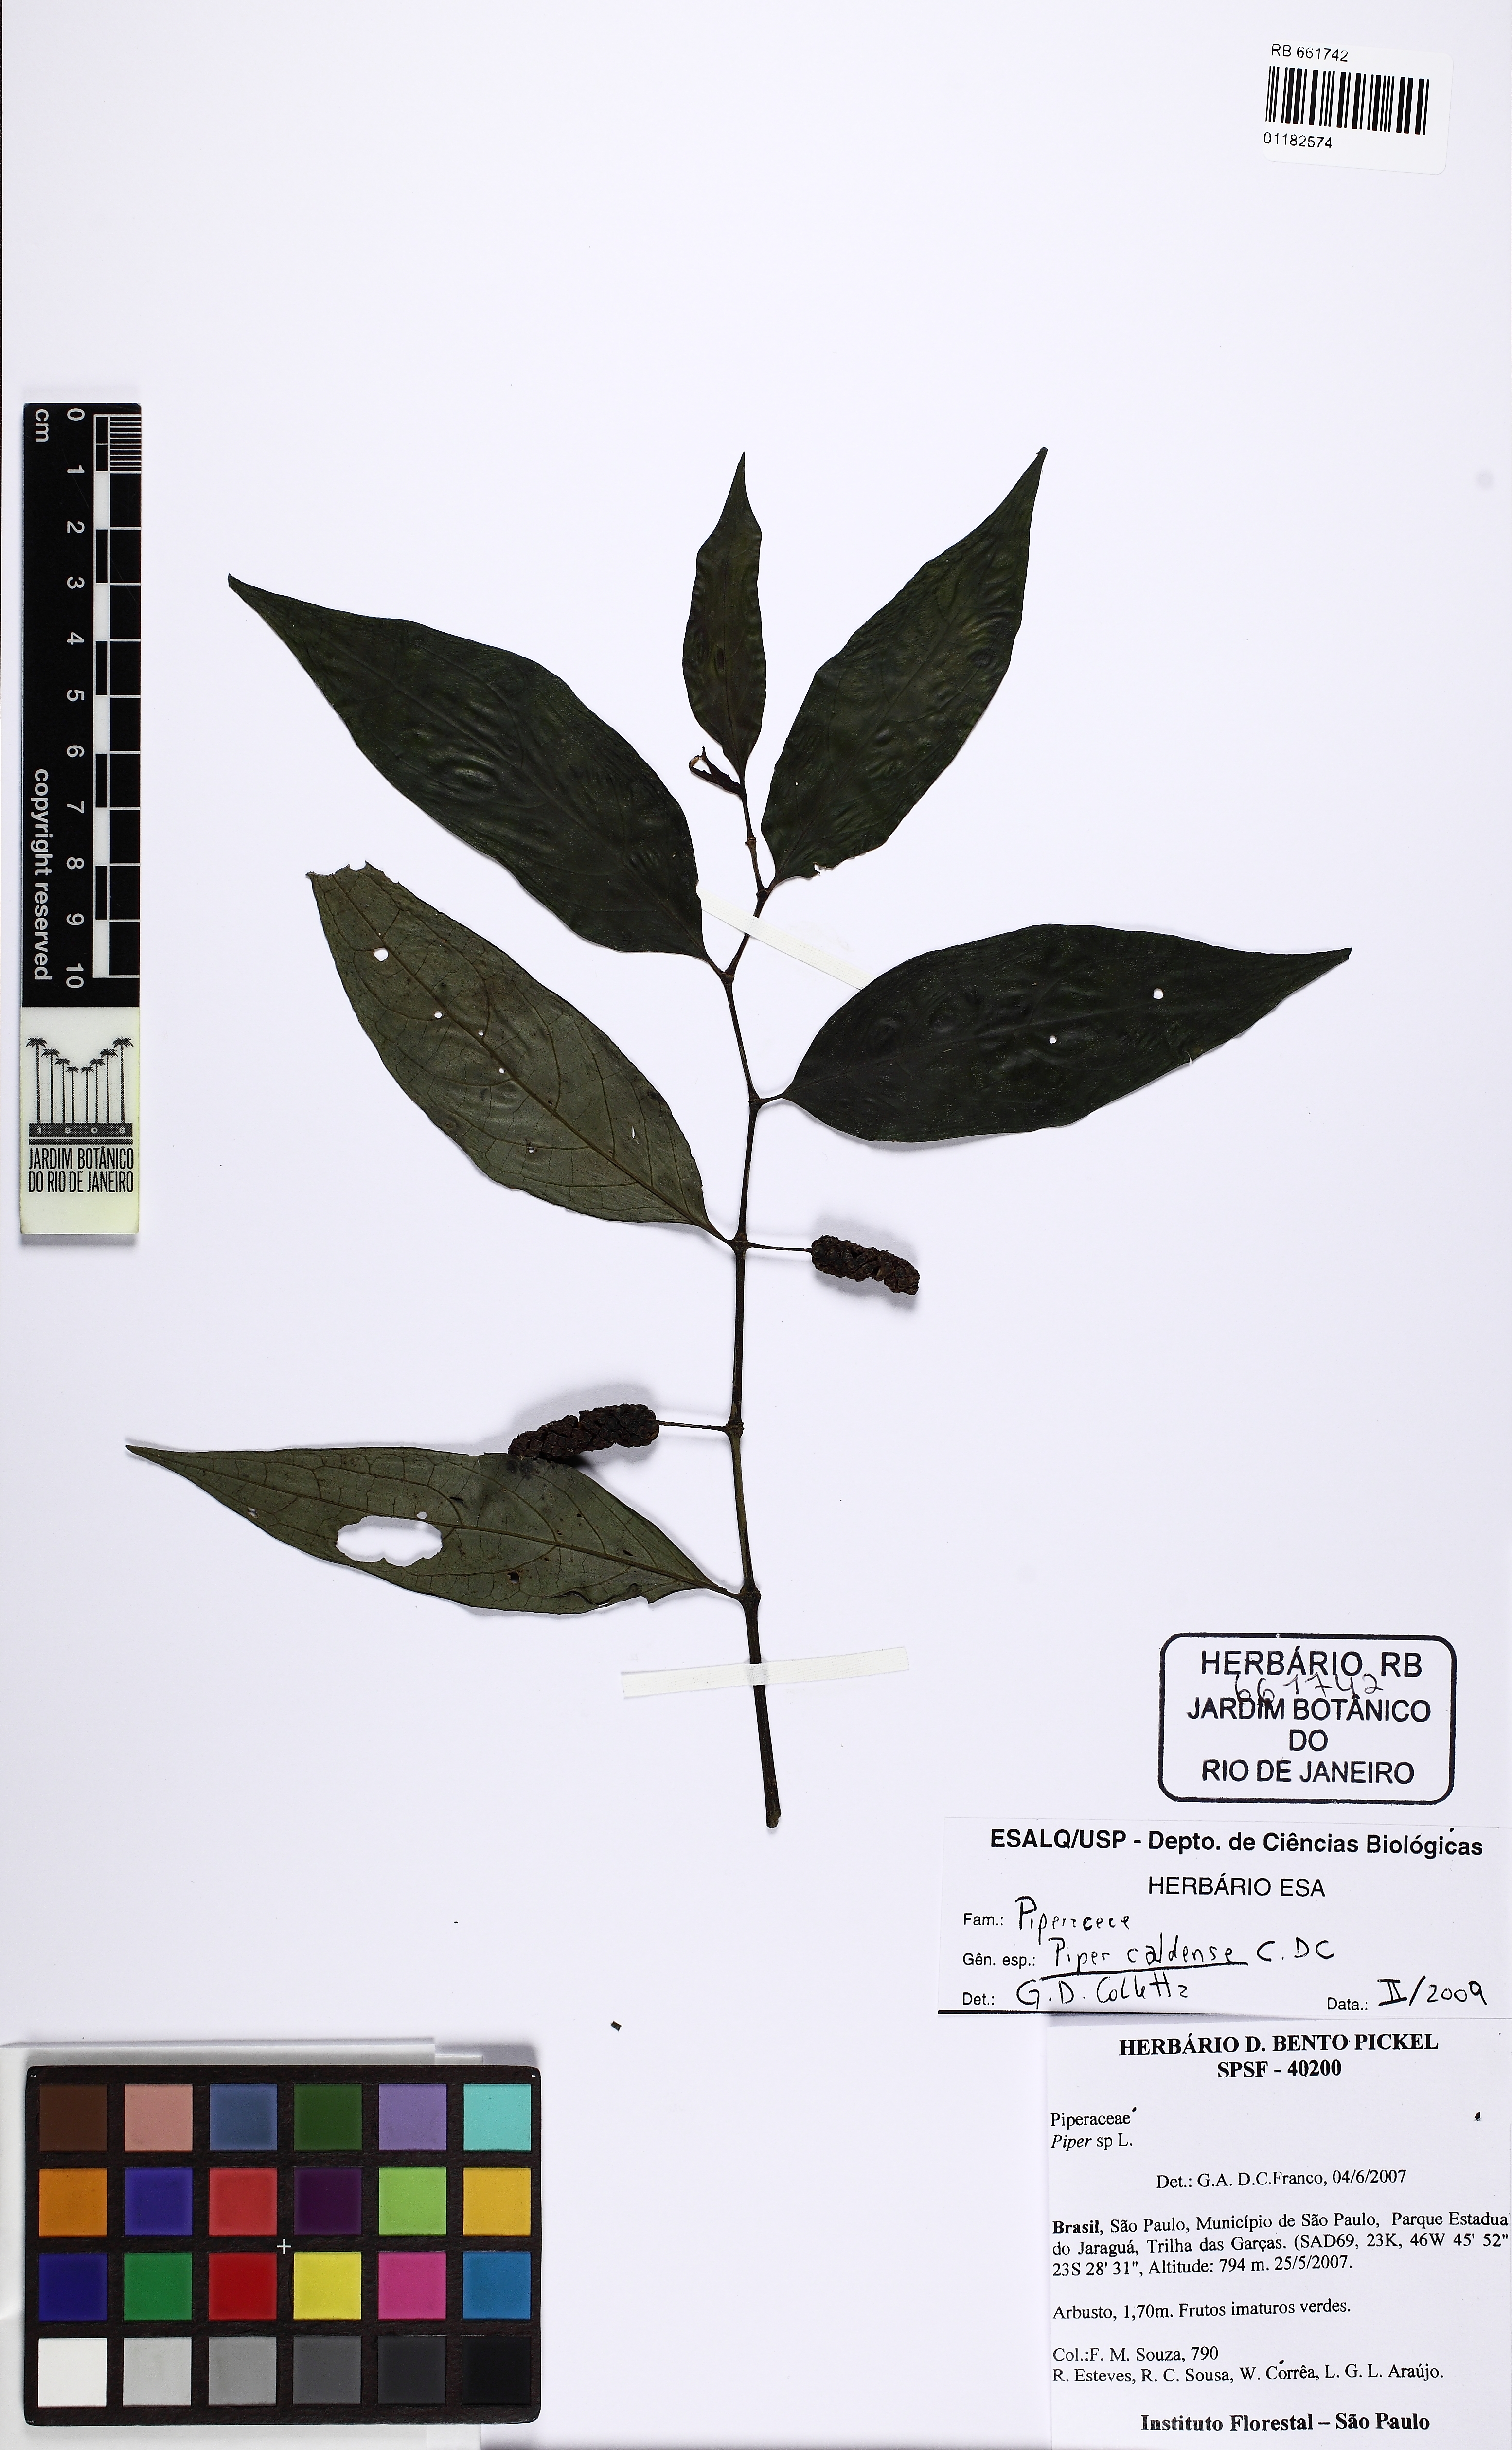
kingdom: Plantae
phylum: Tracheophyta
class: Magnoliopsida
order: Piperales
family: Piperaceae
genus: Piper
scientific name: Piper caldense
